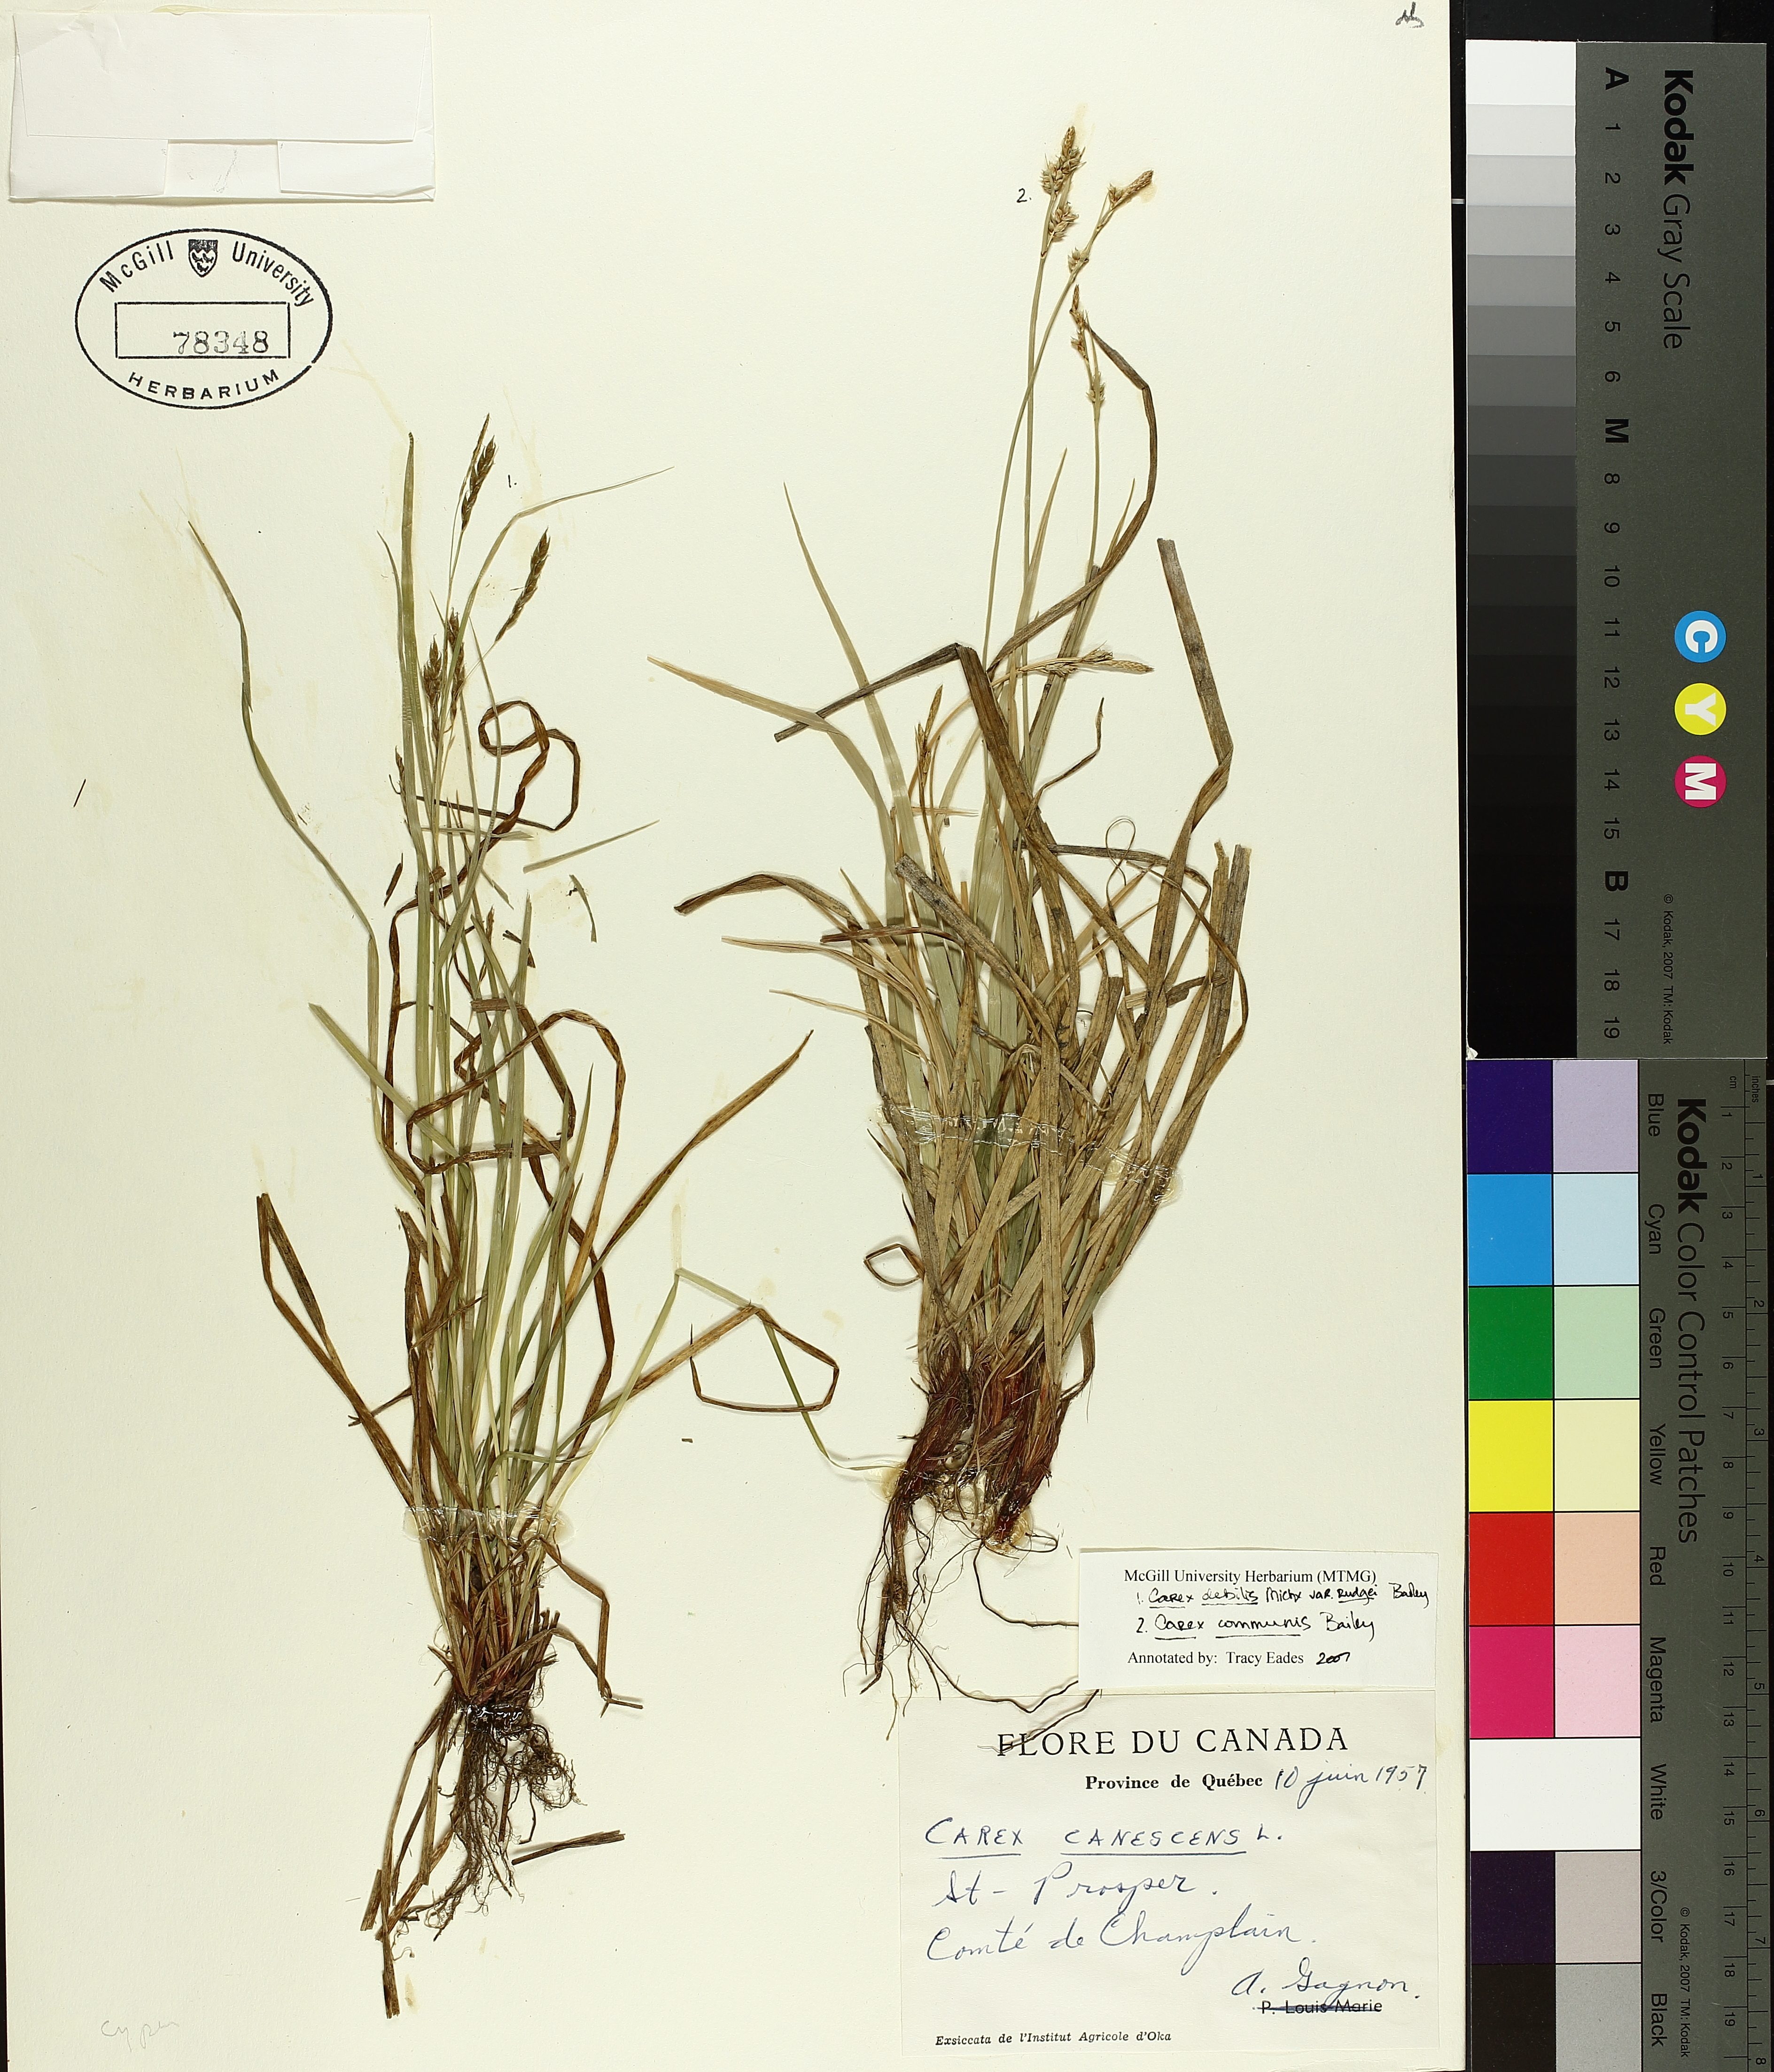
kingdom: Plantae
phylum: Tracheophyta
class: Liliopsida
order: Poales
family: Cyperaceae
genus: Carex
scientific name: Carex communis
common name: Colonial oak sedge
